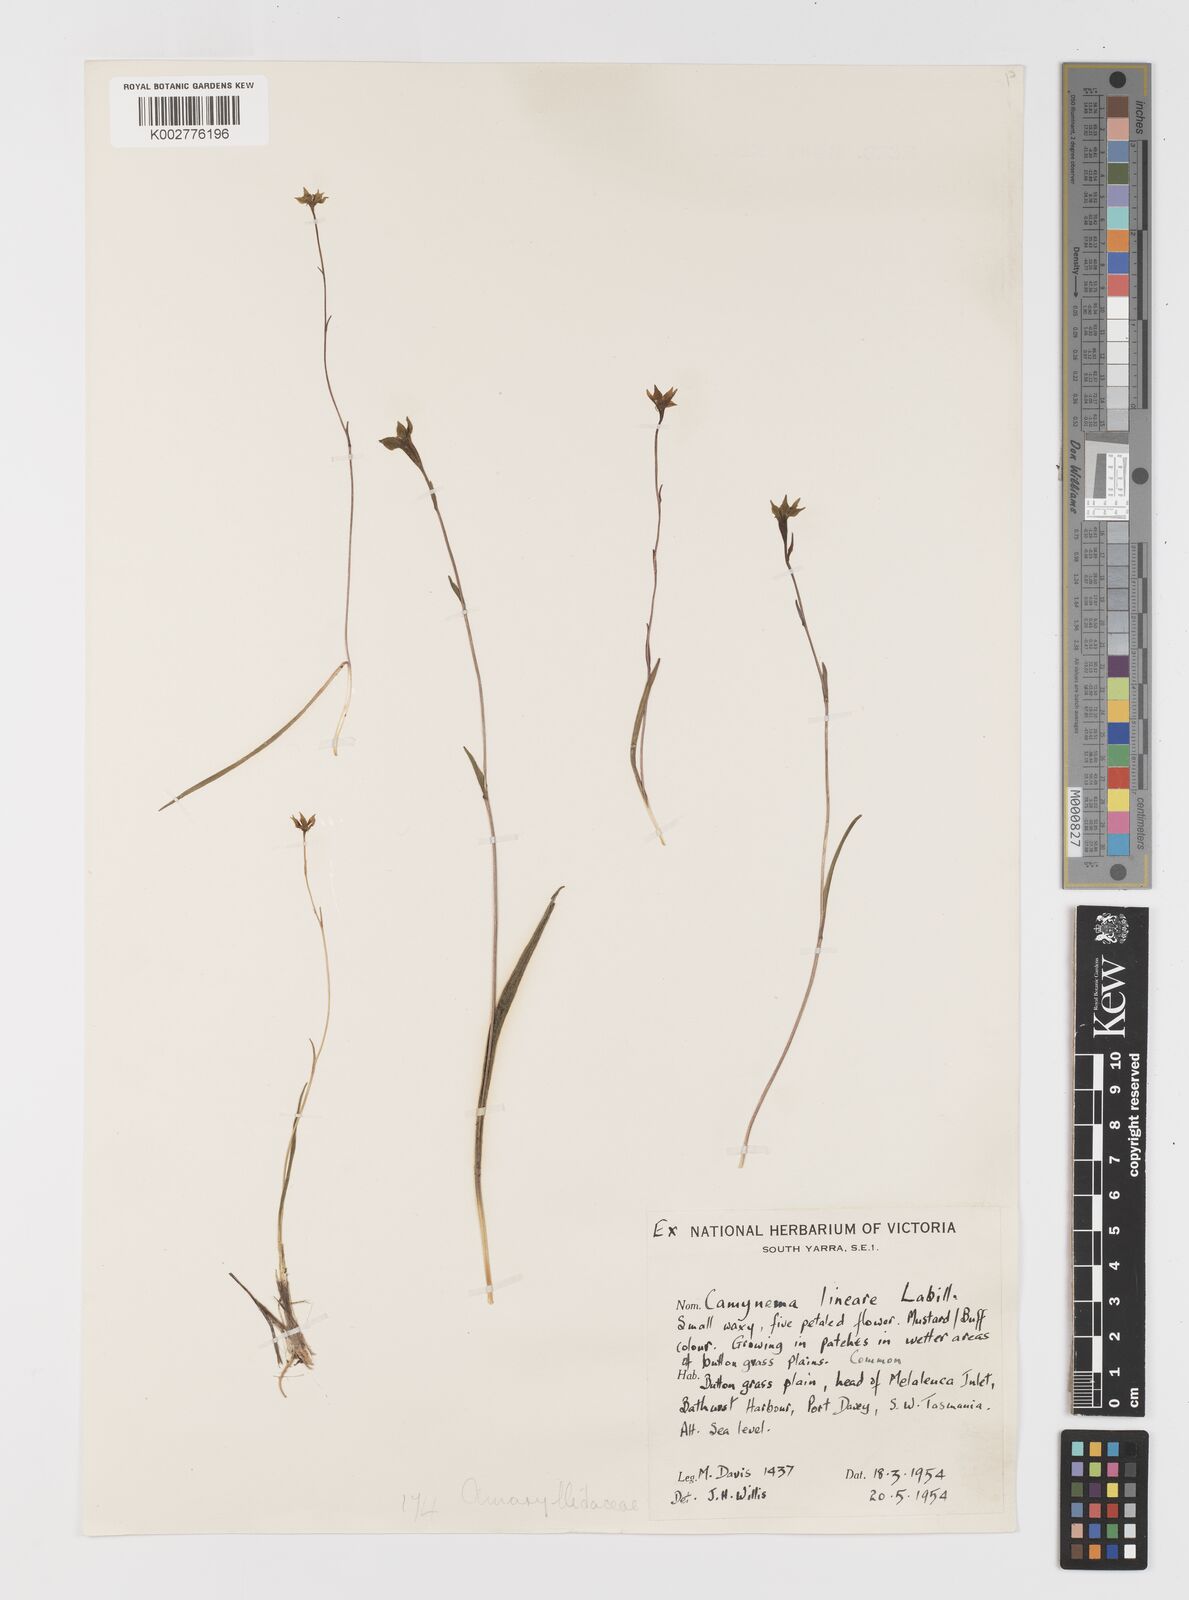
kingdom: Plantae
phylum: Tracheophyta
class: Liliopsida
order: Liliales
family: Campynemataceae
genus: Campynema
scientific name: Campynema lineare
